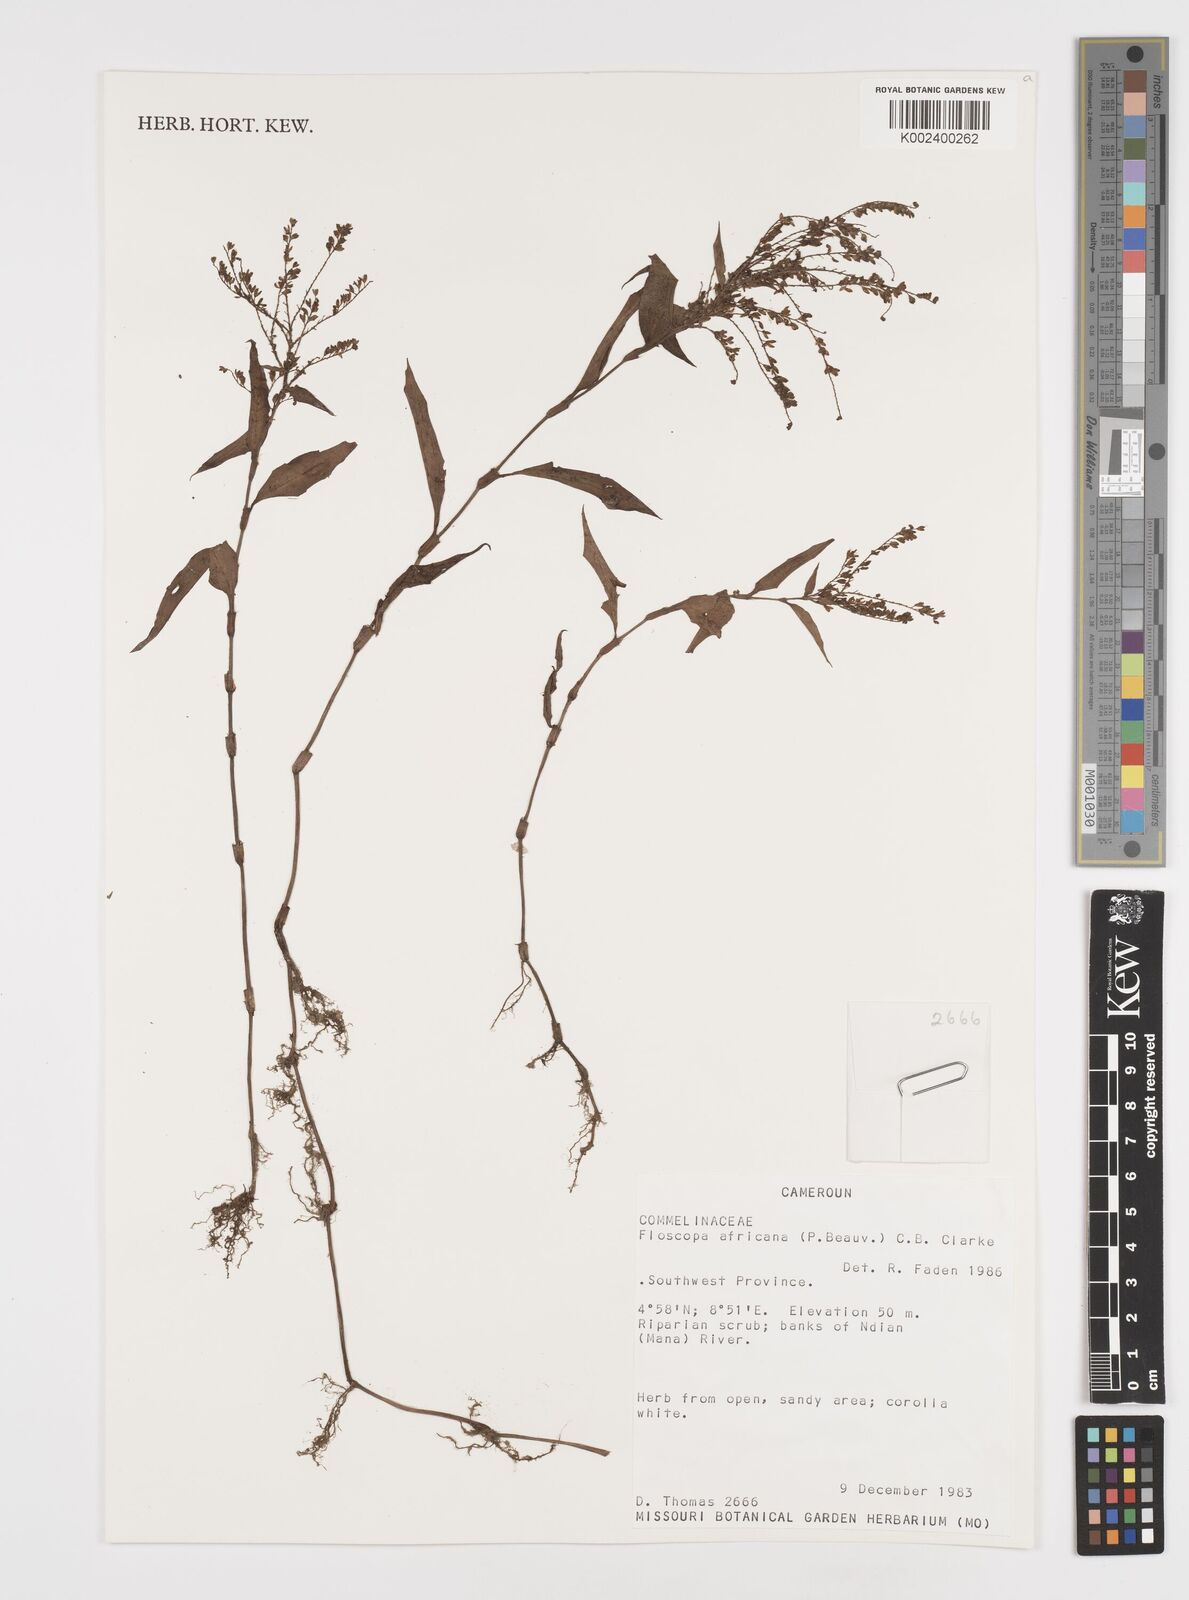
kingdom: Plantae
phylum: Tracheophyta
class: Liliopsida
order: Commelinales
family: Commelinaceae
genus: Floscopa
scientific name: Floscopa africana
